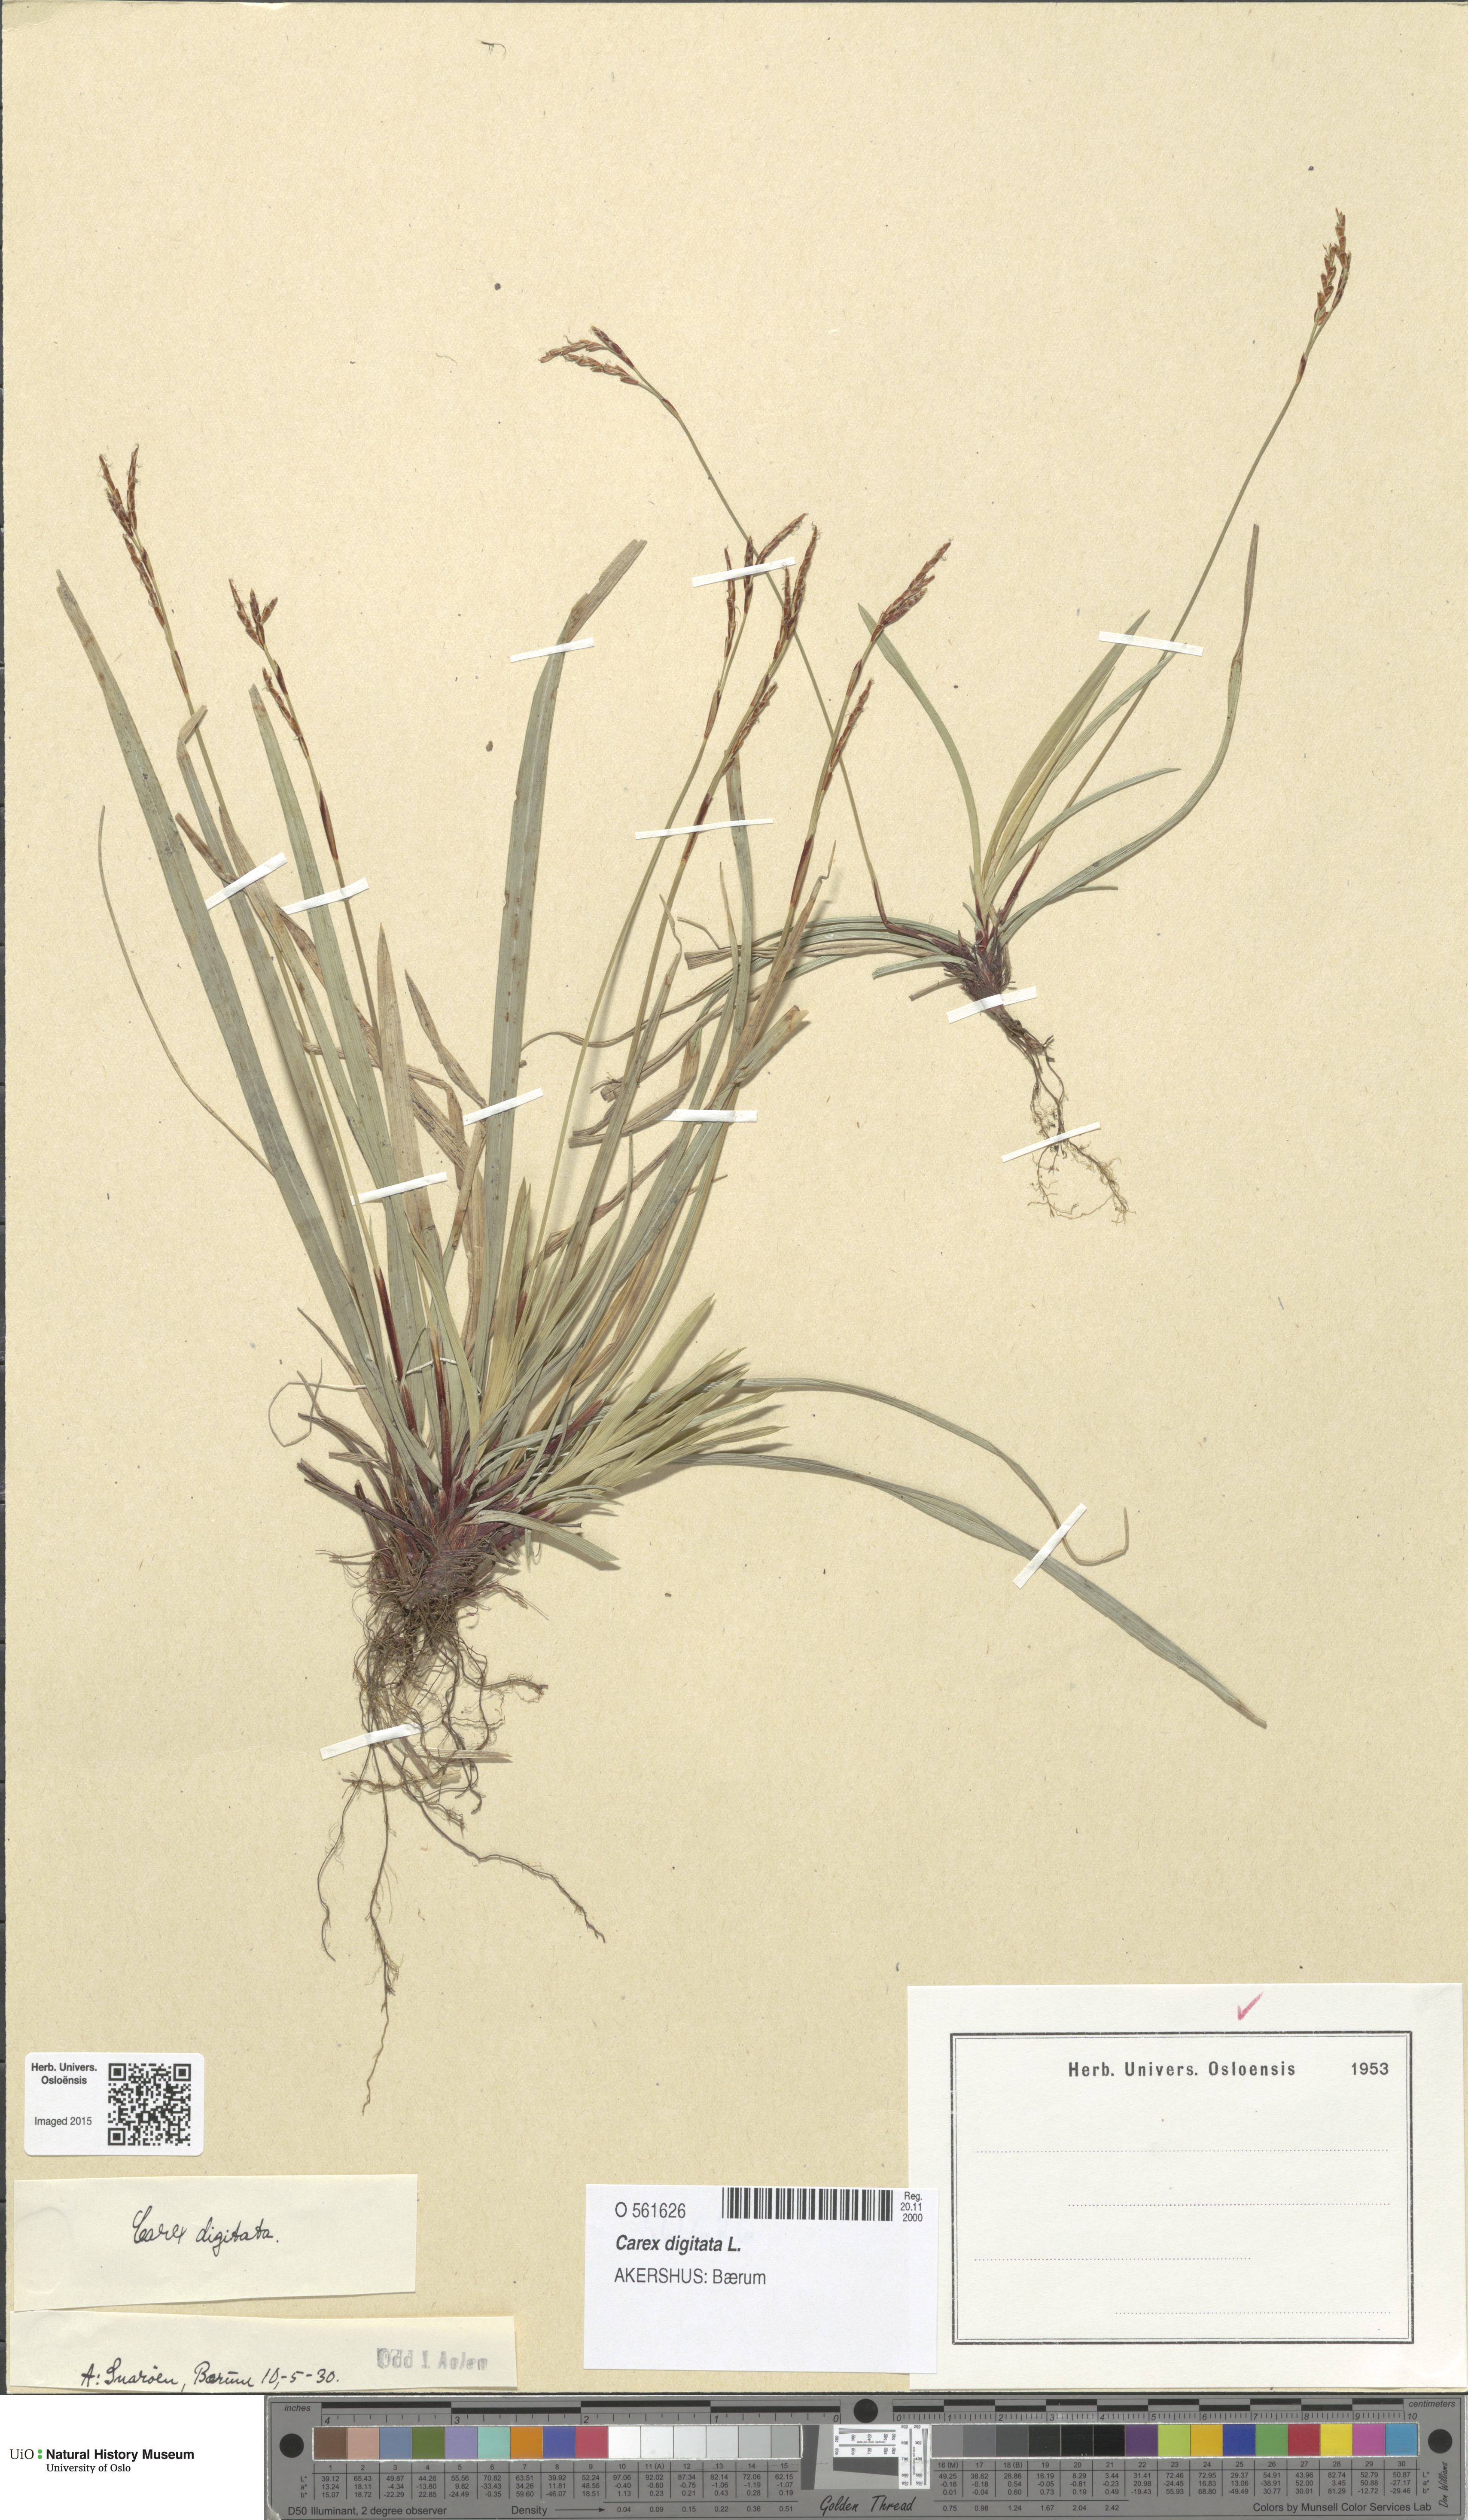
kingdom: Plantae
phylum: Tracheophyta
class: Liliopsida
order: Poales
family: Cyperaceae
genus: Carex
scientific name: Carex digitata
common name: Fingered sedge
